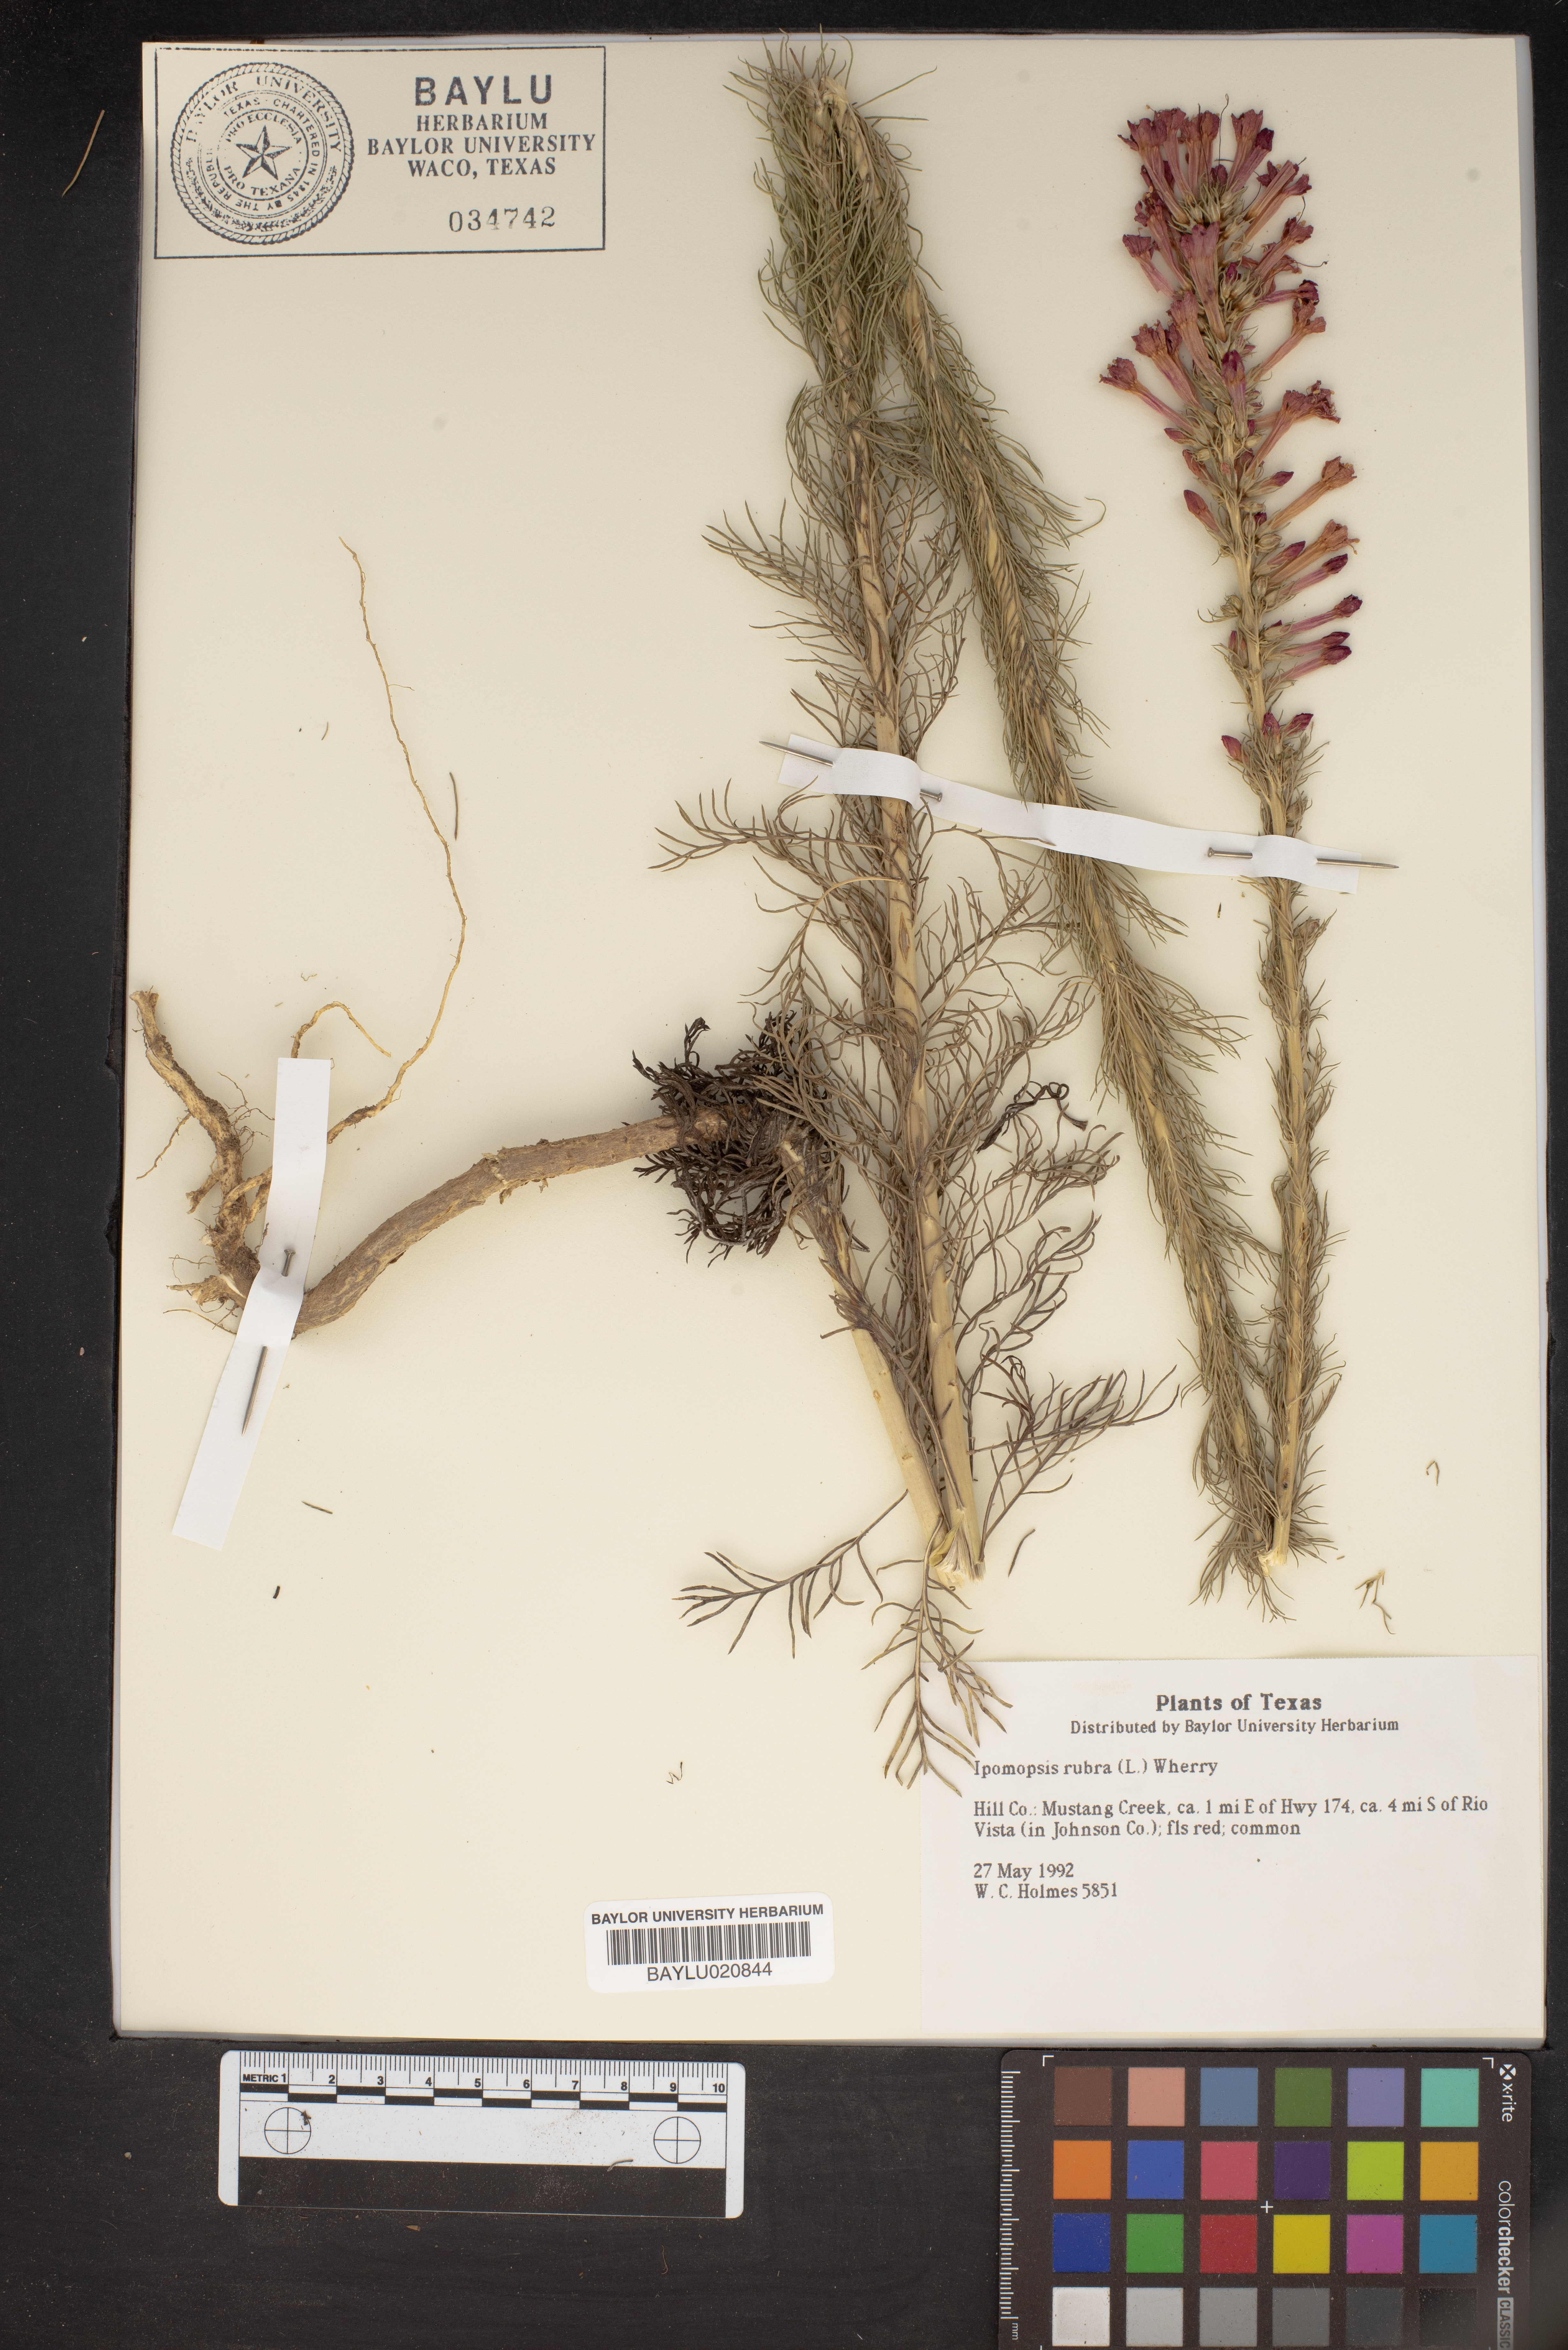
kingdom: Plantae
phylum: Tracheophyta
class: Magnoliopsida
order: Ericales
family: Polemoniaceae
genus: Ipomopsis
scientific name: Ipomopsis rubra
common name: Skyrocket
